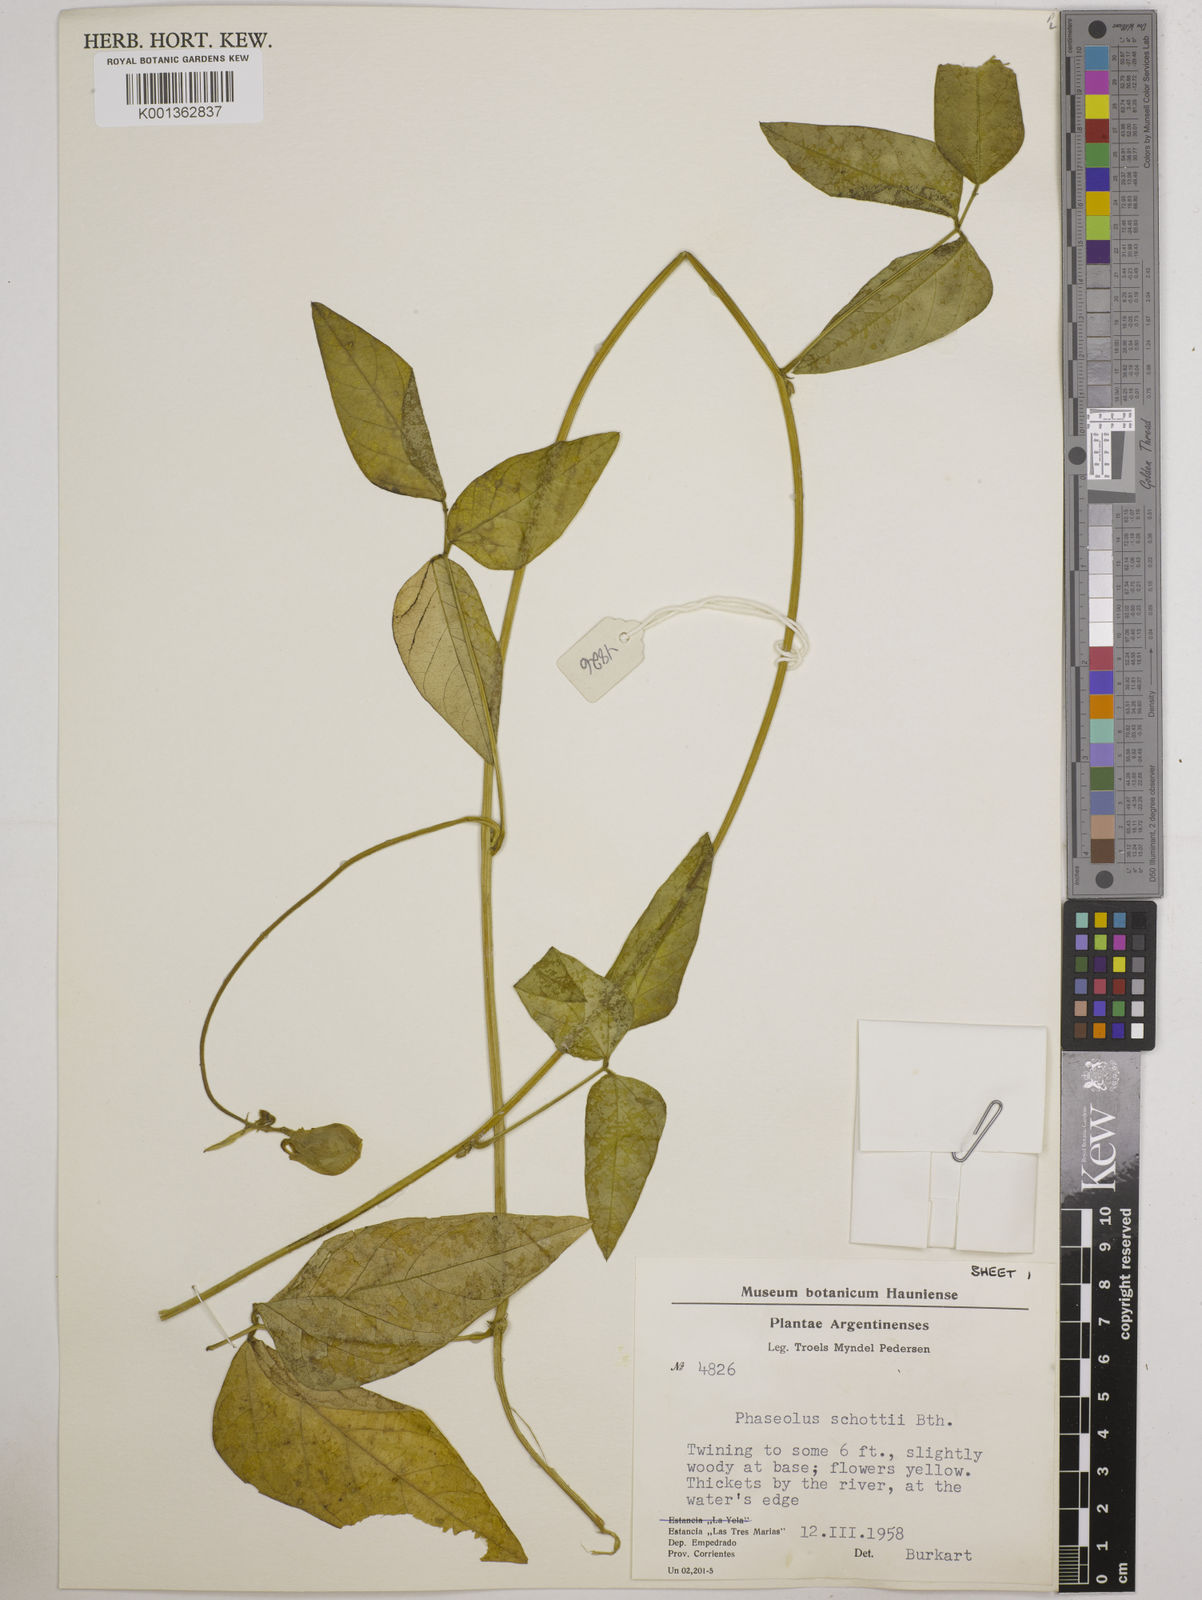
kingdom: Plantae
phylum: Tracheophyta
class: Magnoliopsida
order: Fabales
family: Fabaceae
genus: Vigna
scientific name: Vigna longifolia
